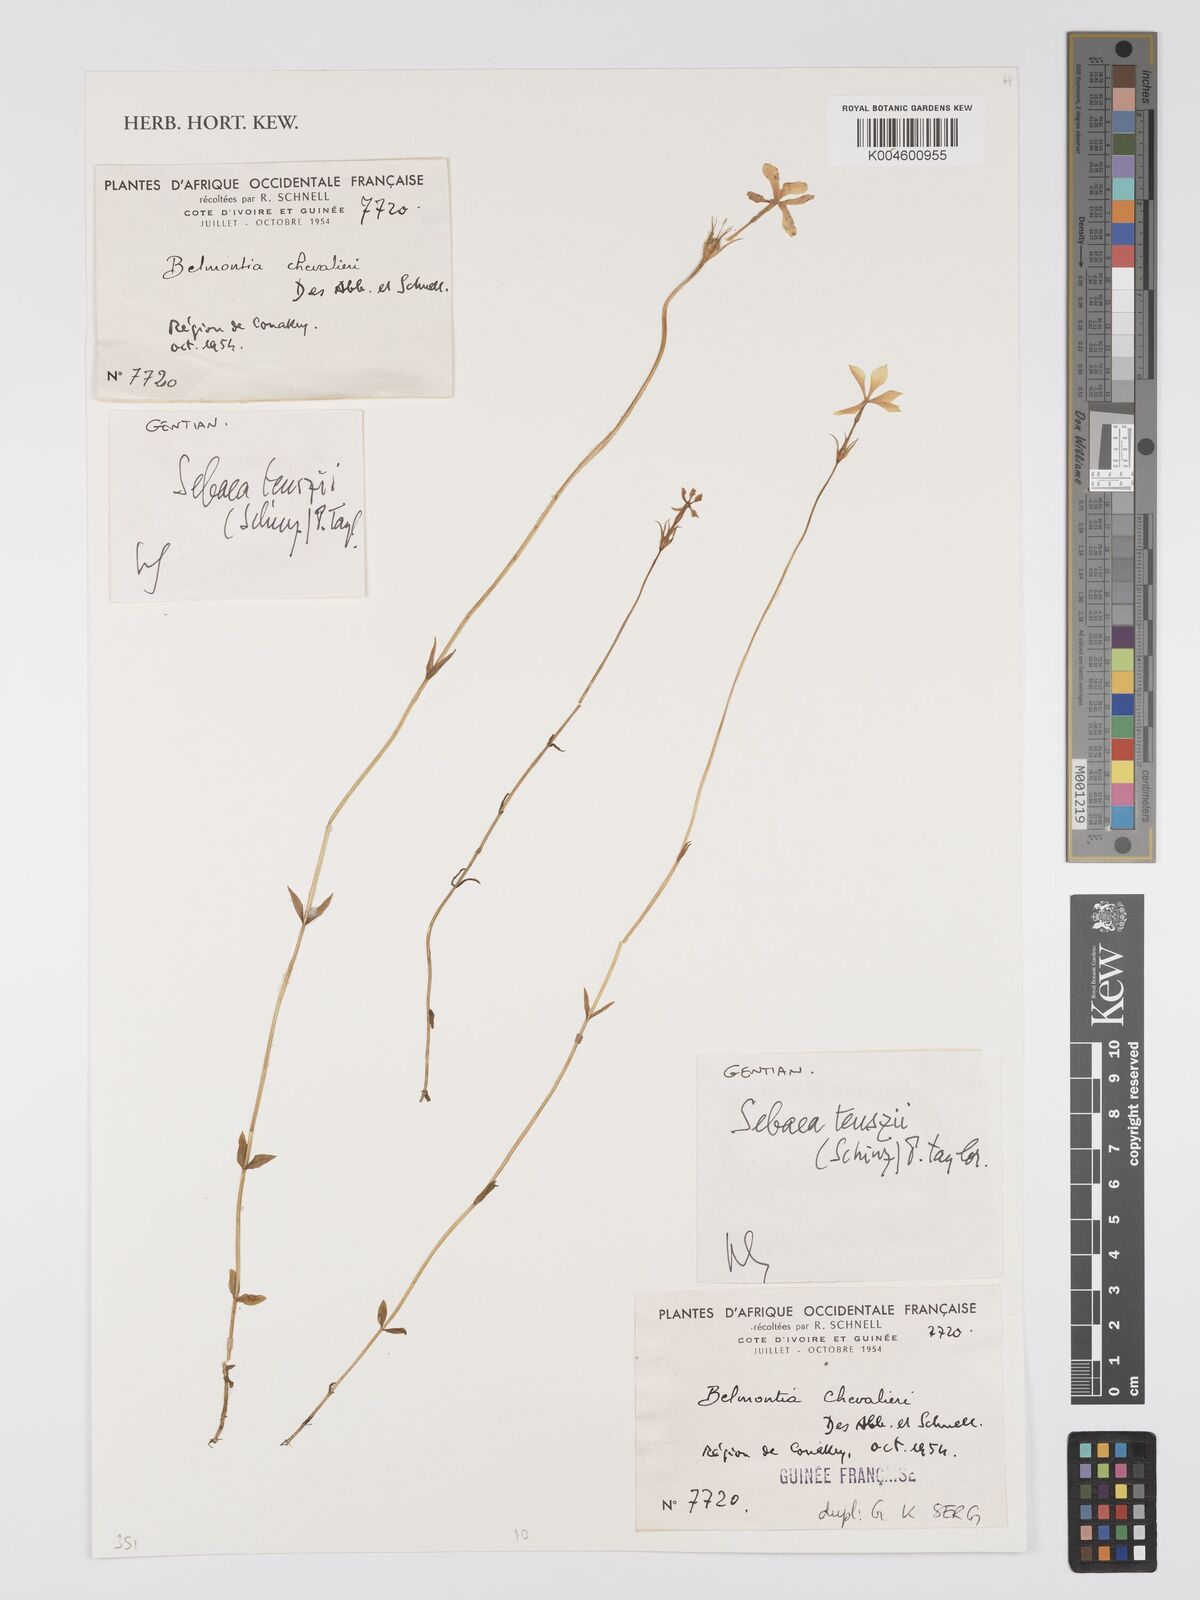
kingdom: Plantae
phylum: Tracheophyta
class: Magnoliopsida
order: Gentianales
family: Gentianaceae
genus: Exochaenium
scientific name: Exochaenium teuszii
